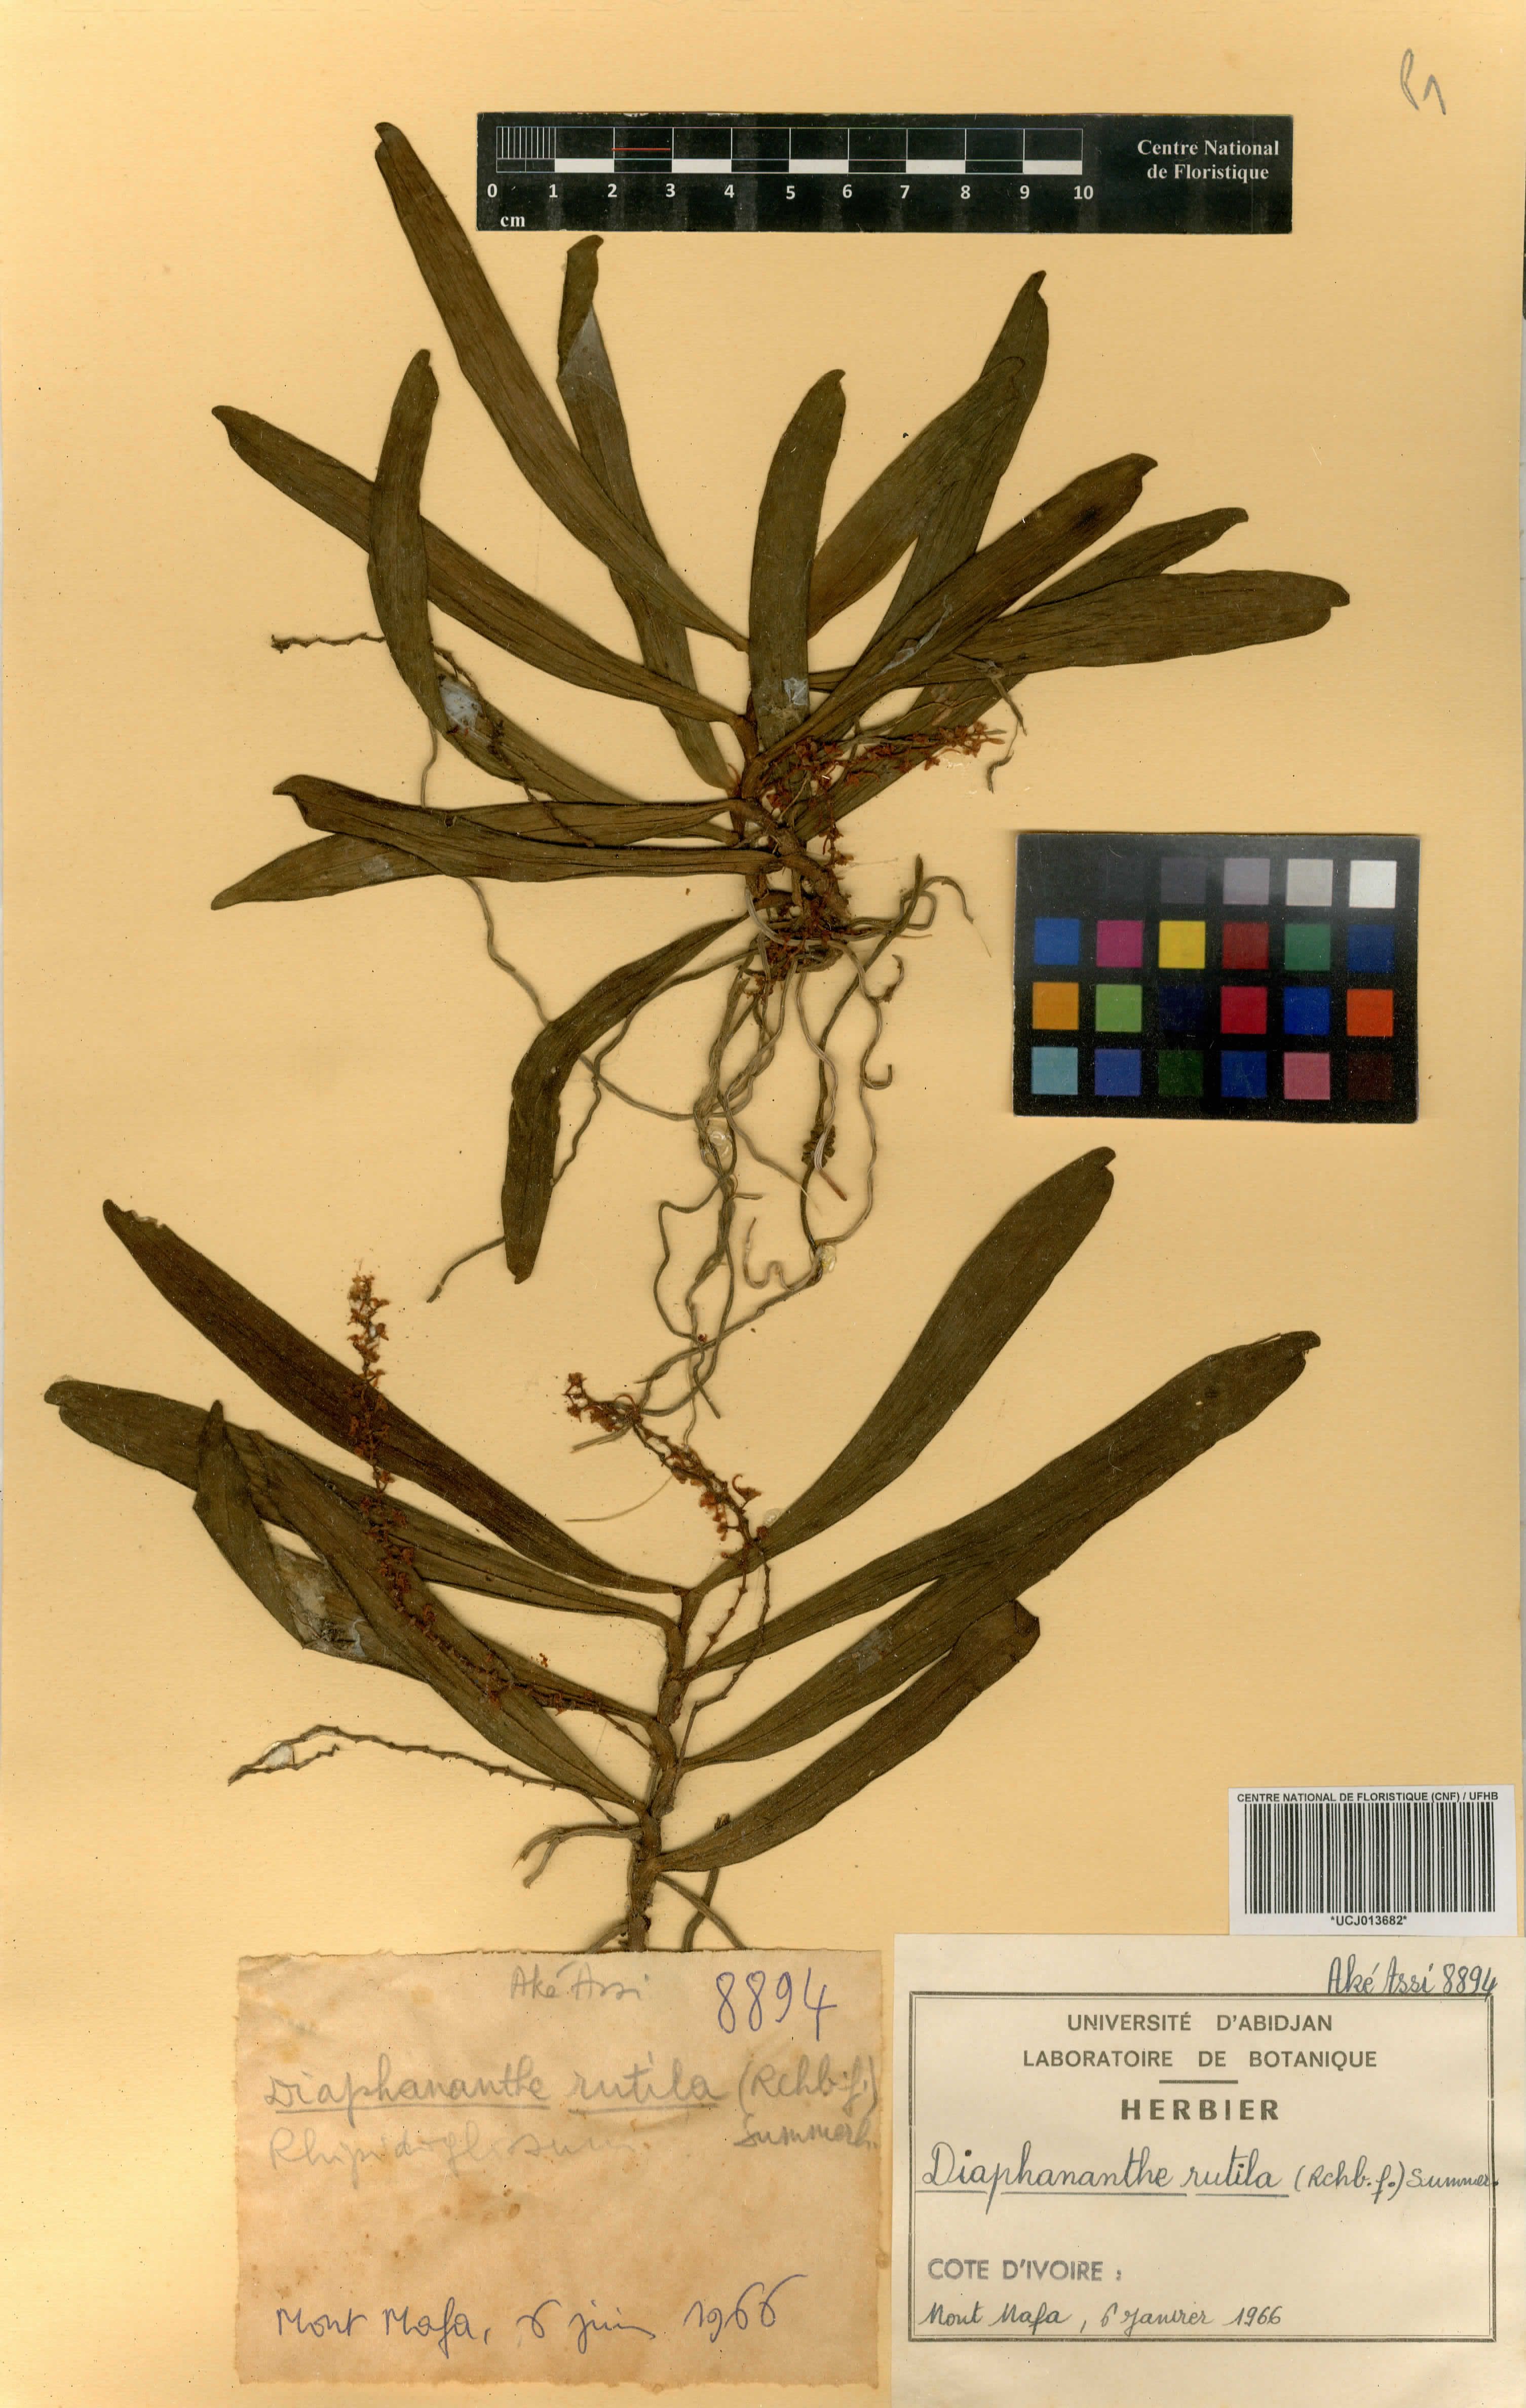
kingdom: Plantae
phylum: Tracheophyta
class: Liliopsida
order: Asparagales
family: Orchidaceae
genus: Rhipidoglossum
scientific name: Rhipidoglossum rutilum
